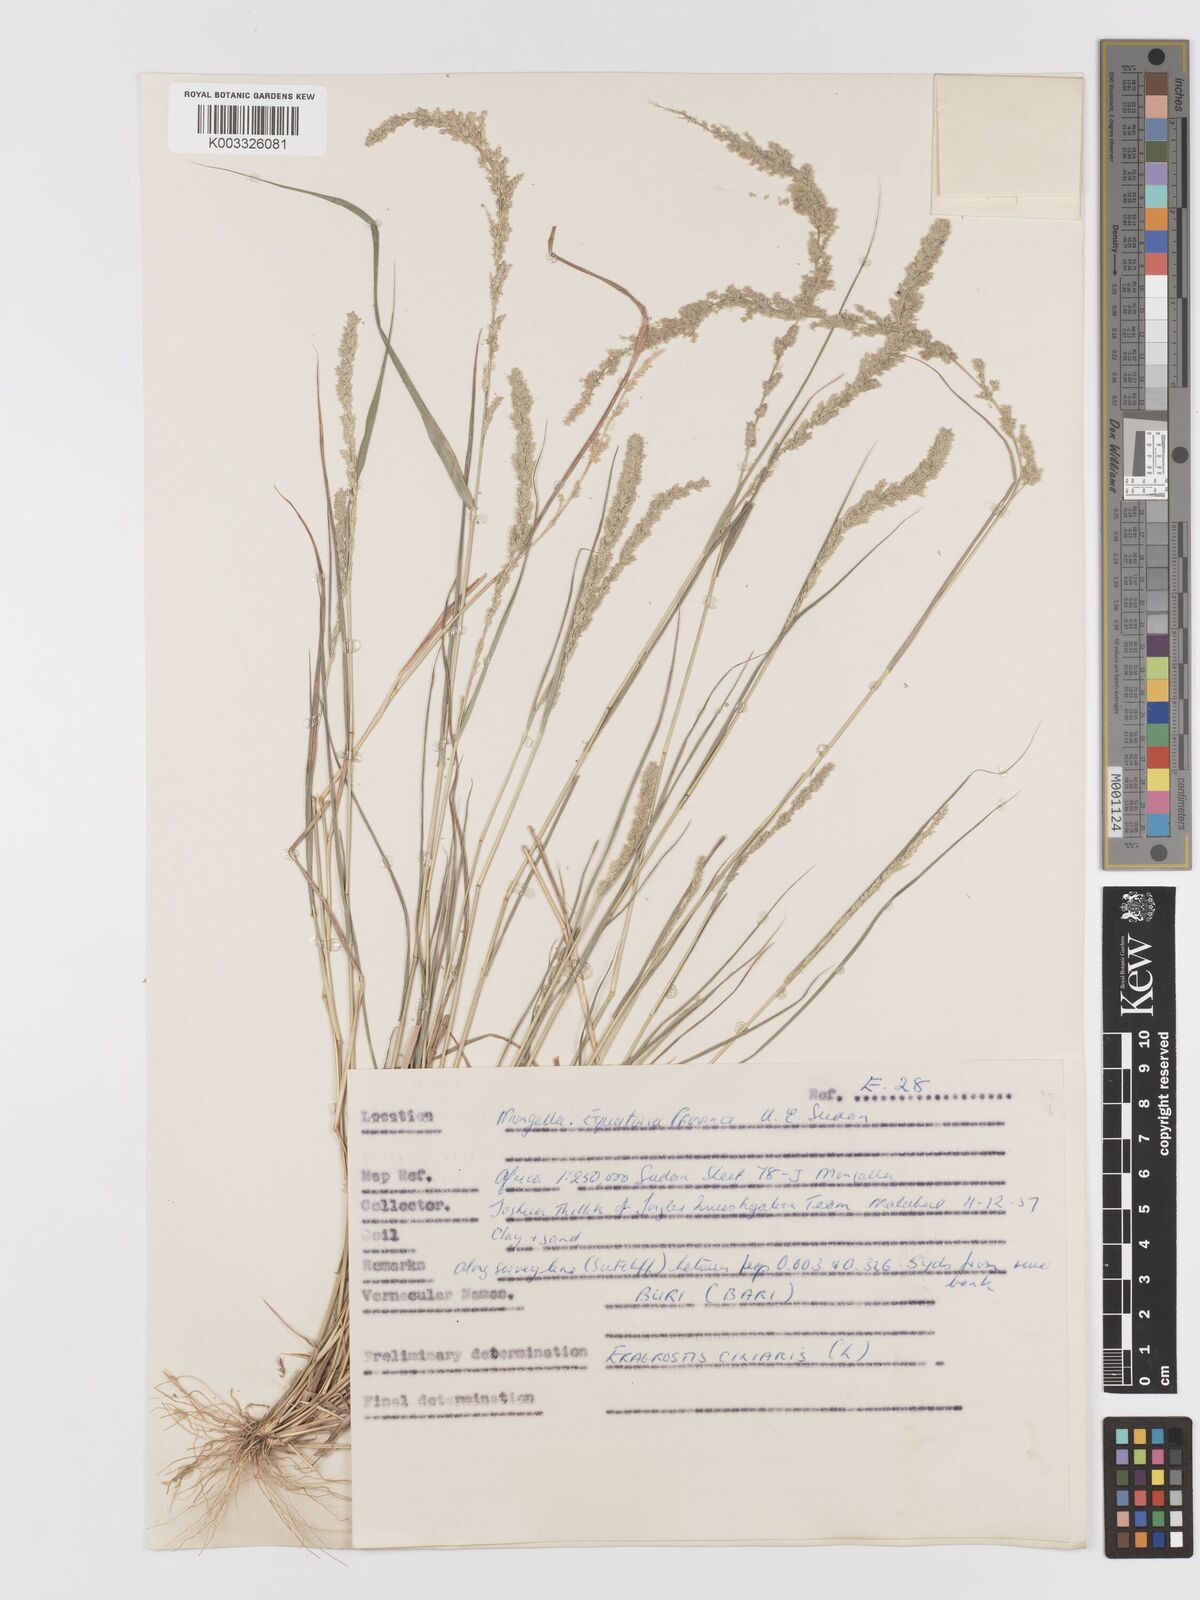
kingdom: Plantae
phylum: Tracheophyta
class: Liliopsida
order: Poales
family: Poaceae
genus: Eragrostis
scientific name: Eragrostis ciliaris
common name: Gophertail lovegrass
